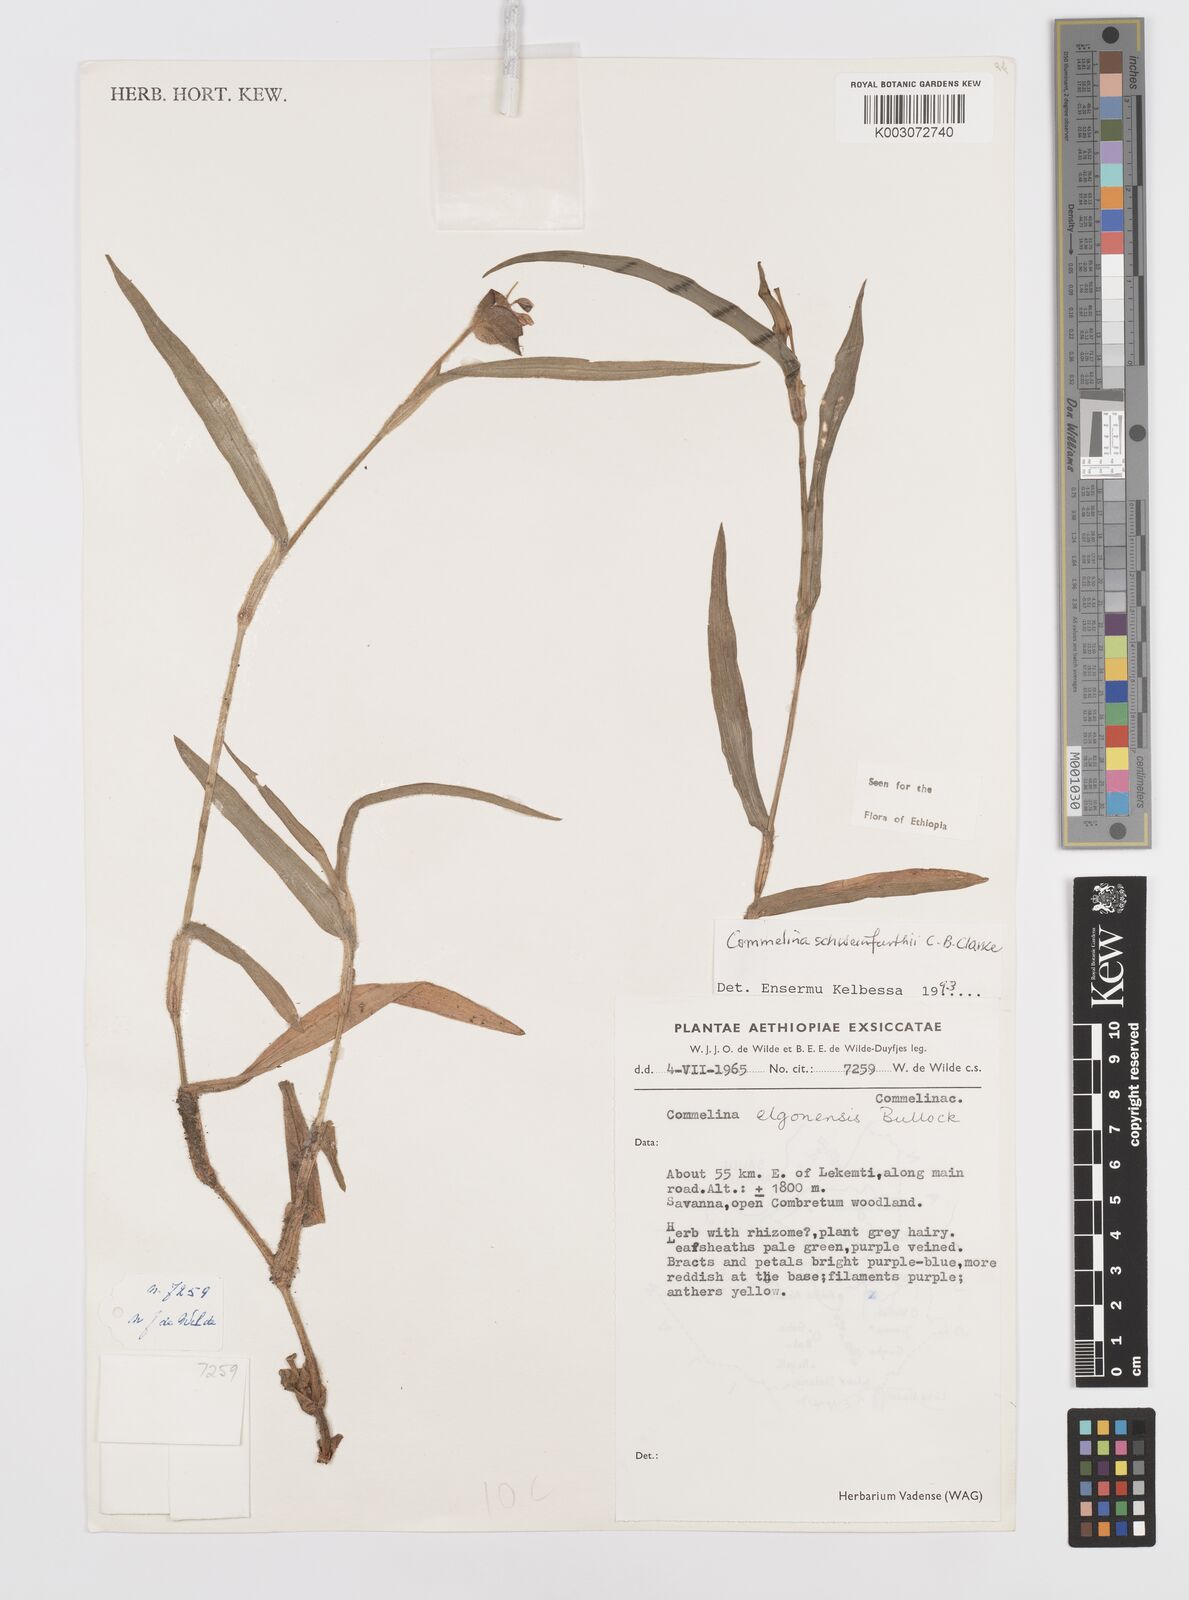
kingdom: Plantae
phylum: Tracheophyta
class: Liliopsida
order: Commelinales
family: Commelinaceae
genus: Commelina
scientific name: Commelina schweinfurthii
